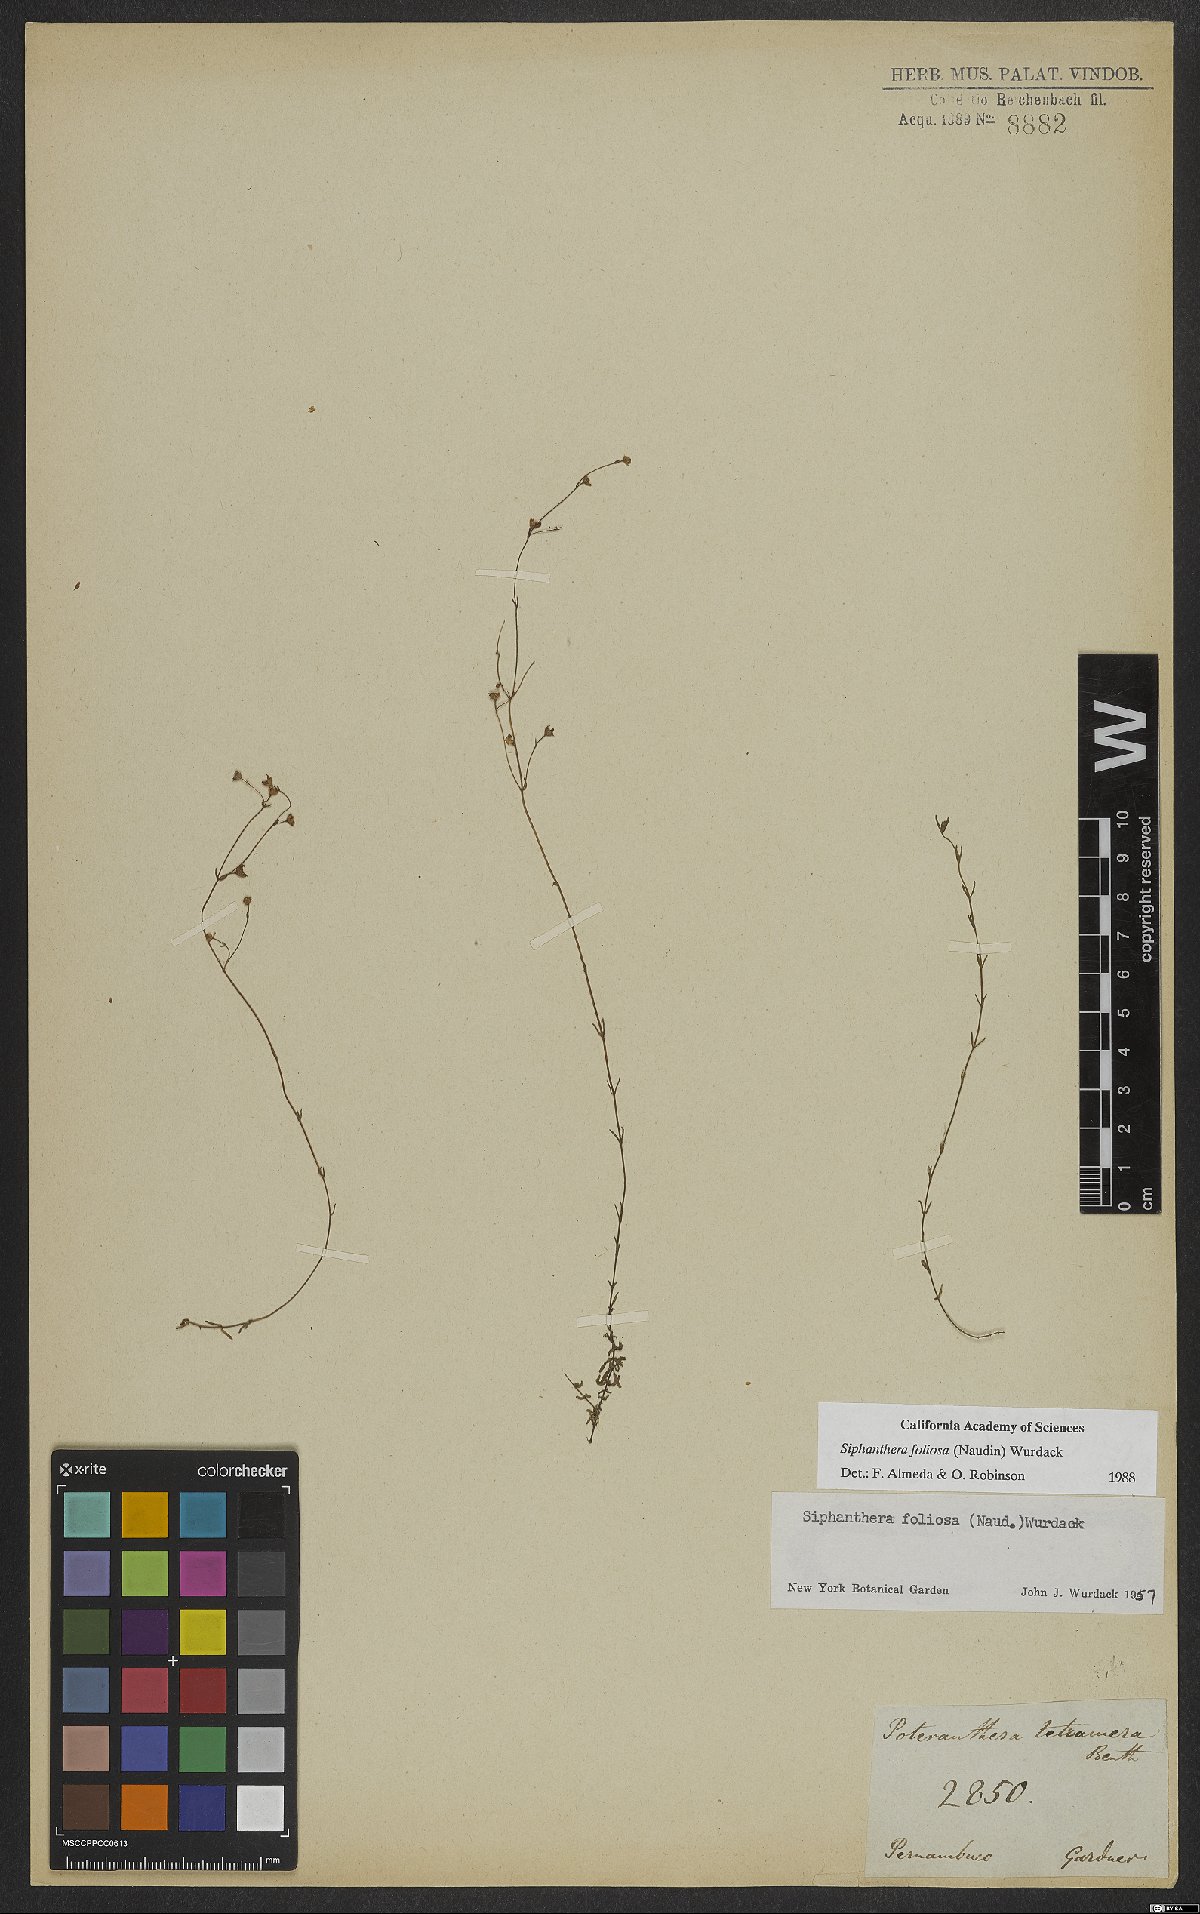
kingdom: Plantae
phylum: Tracheophyta
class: Magnoliopsida
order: Myrtales
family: Melastomataceae
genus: Siphanthera
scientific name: Siphanthera foliosa
